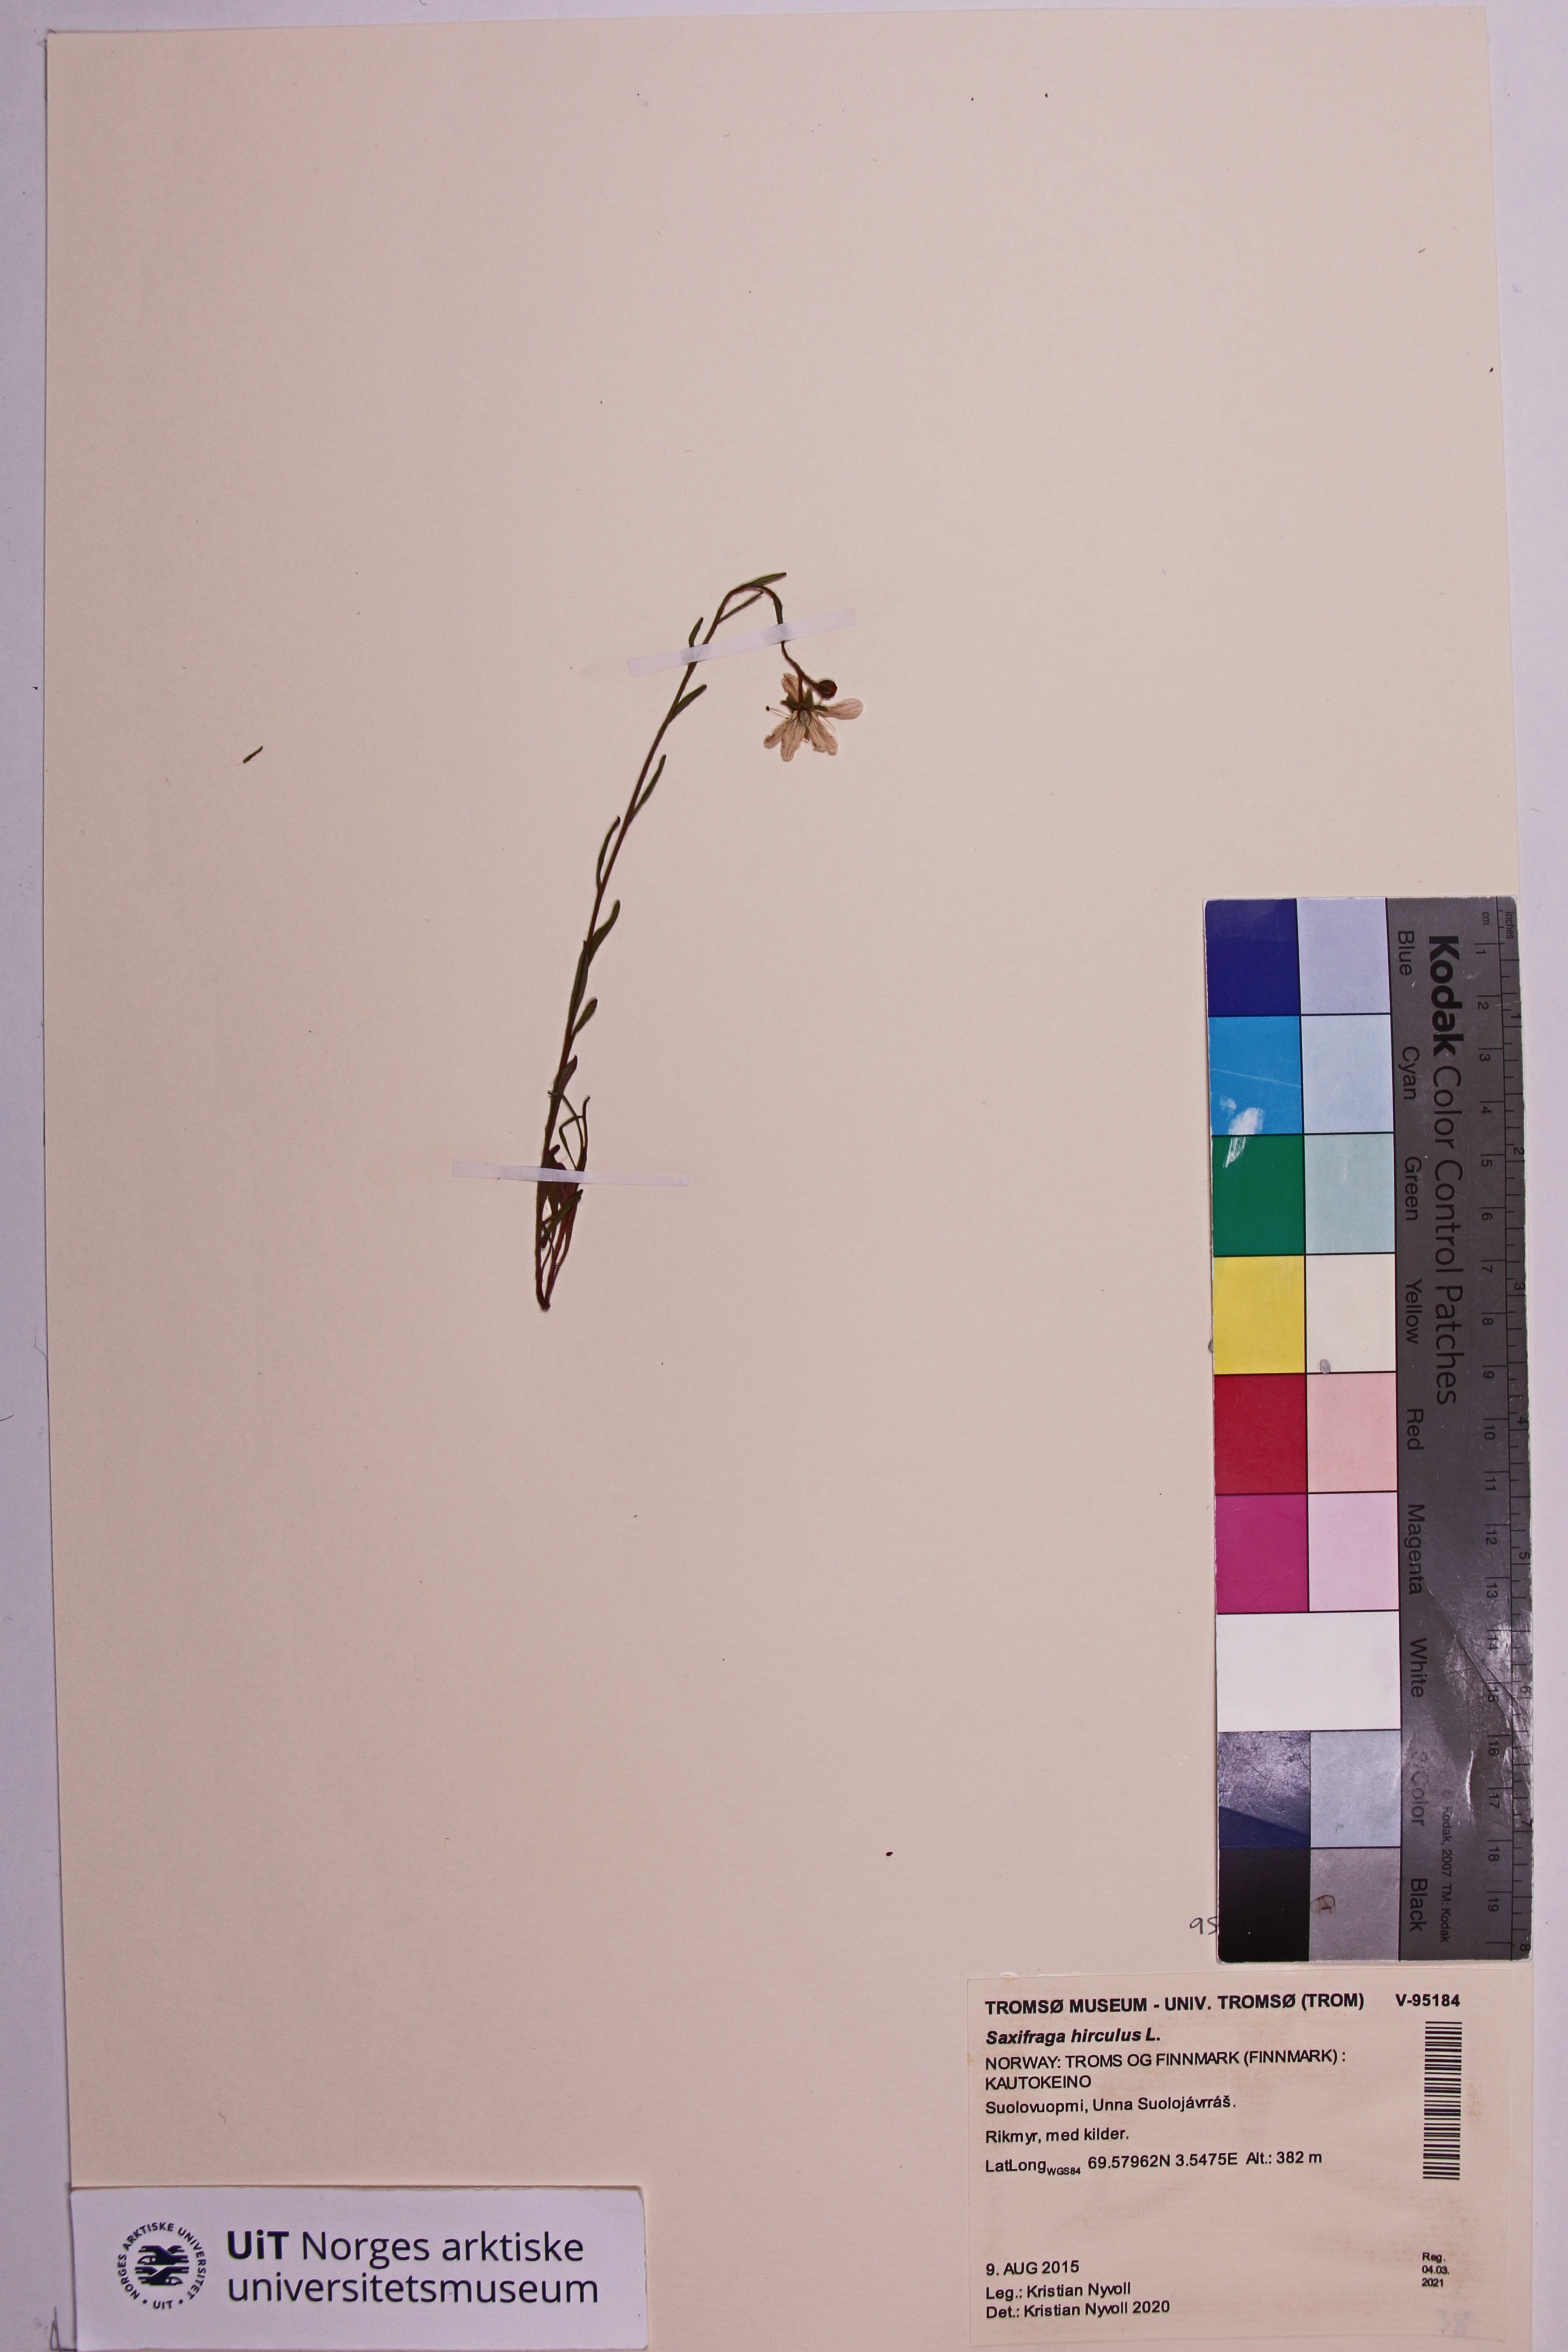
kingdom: Plantae
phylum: Tracheophyta
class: Magnoliopsida
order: Saxifragales
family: Saxifragaceae
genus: Saxifraga
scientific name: Saxifraga hirculus
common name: Yellow marsh saxifrage
